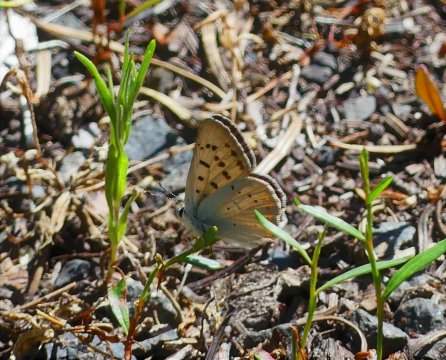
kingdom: Animalia
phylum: Arthropoda
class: Insecta
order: Lepidoptera
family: Sesiidae
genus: Sesia
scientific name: Sesia Lycaena helloides
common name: Purplish Copper
